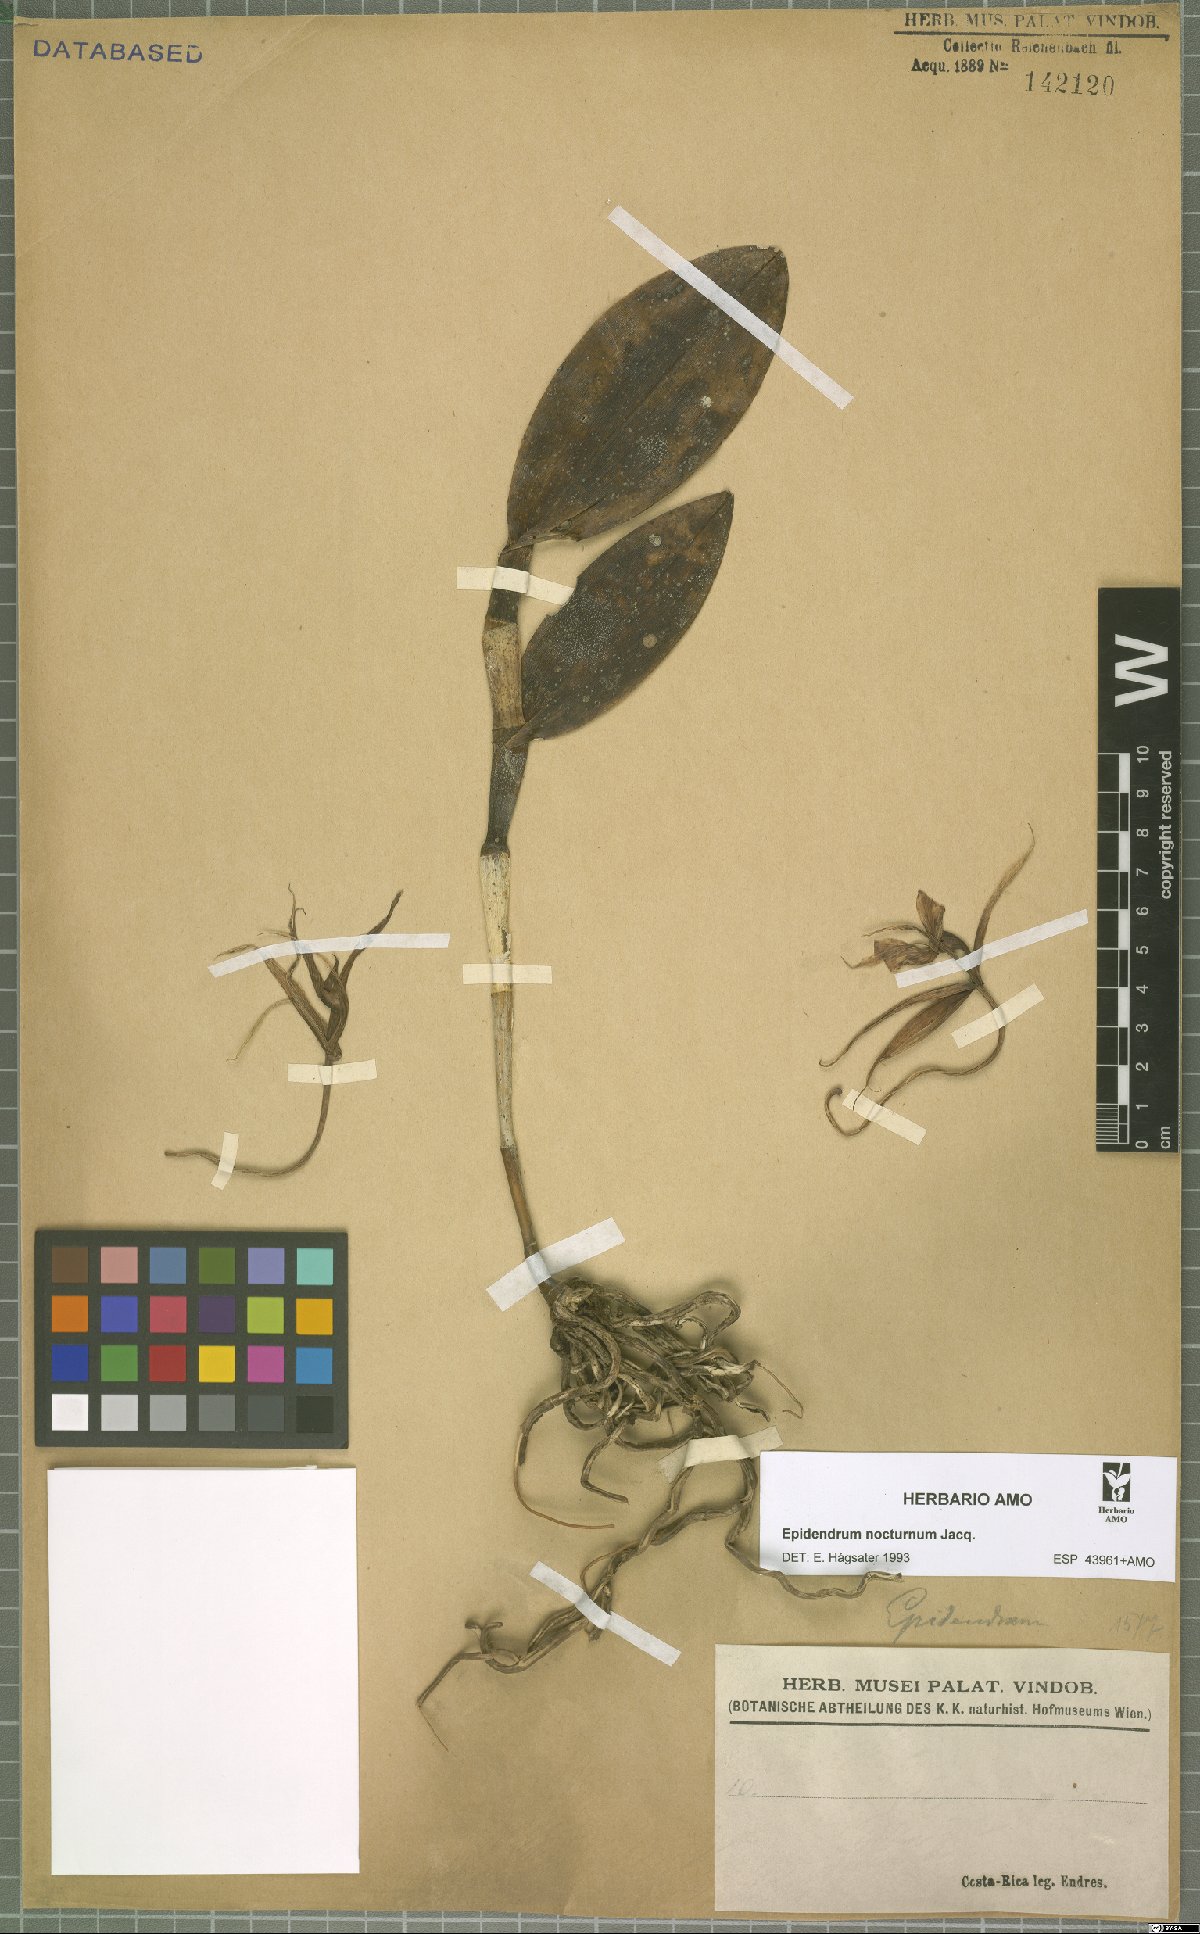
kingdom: Plantae
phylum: Tracheophyta
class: Liliopsida
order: Asparagales
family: Orchidaceae
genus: Epidendrum
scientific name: Epidendrum nocturnum
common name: Night scented orchid
